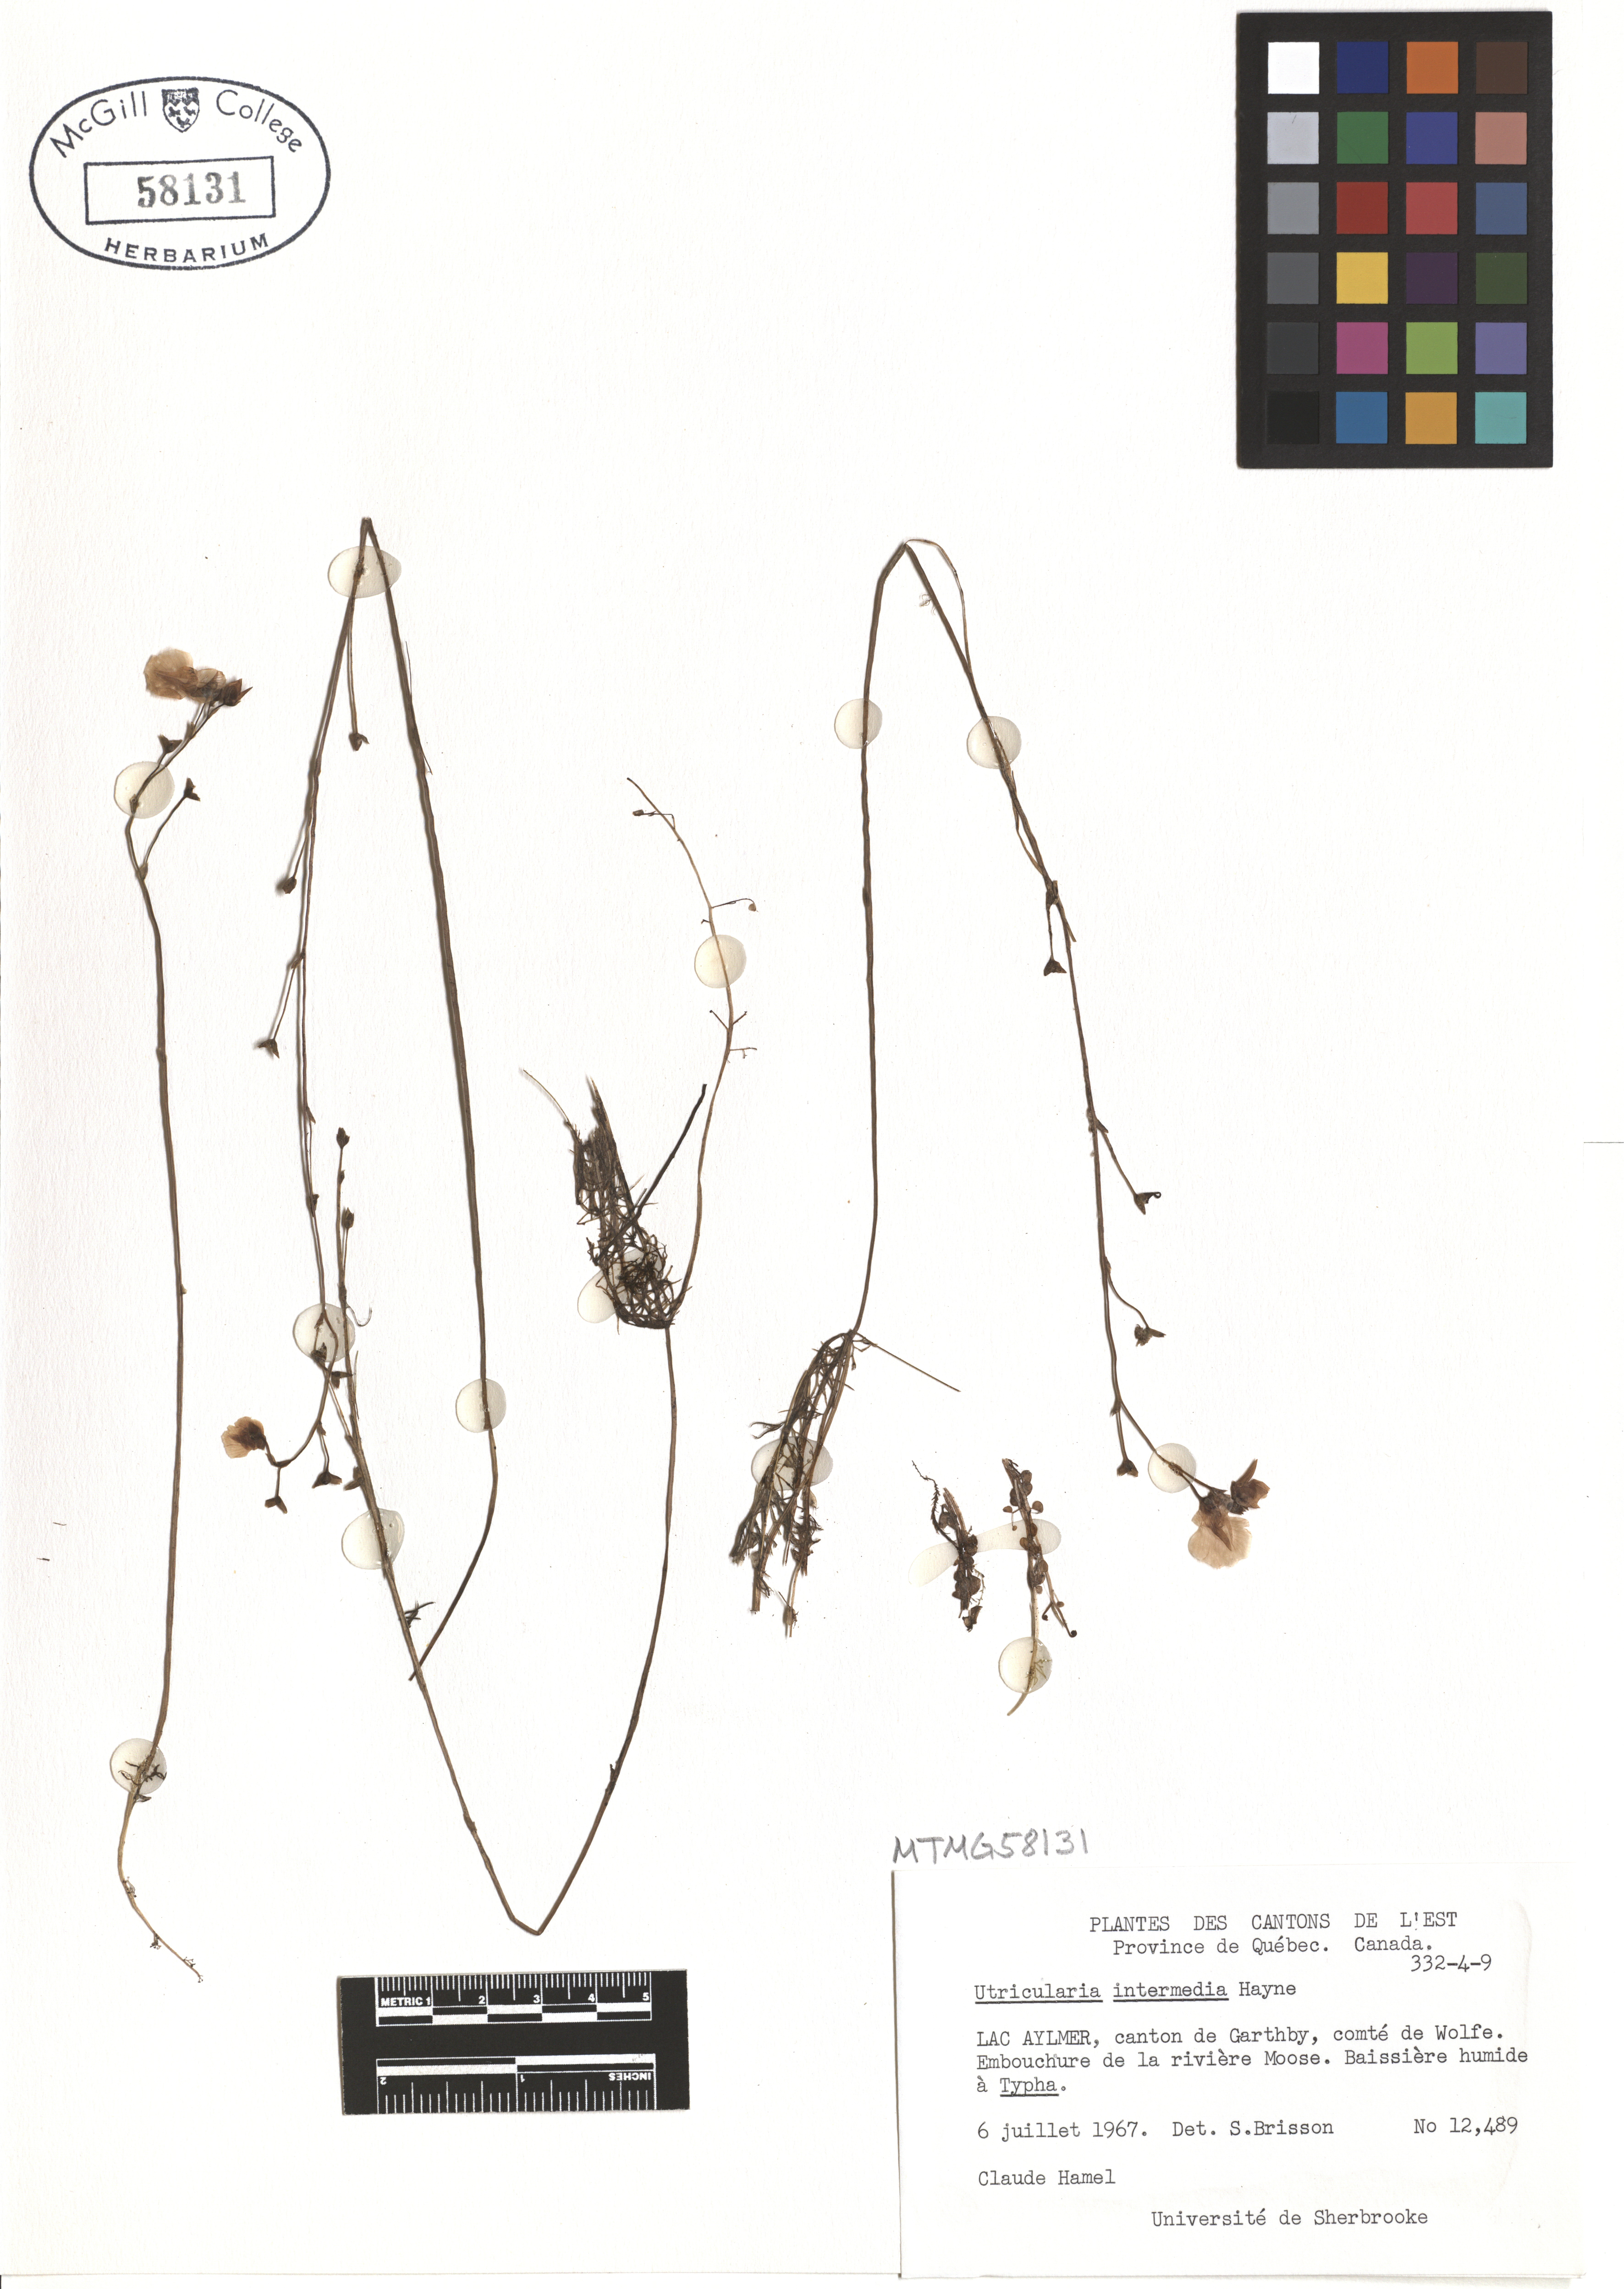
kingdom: Plantae
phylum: Tracheophyta
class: Magnoliopsida
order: Lamiales
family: Lentibulariaceae
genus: Utricularia
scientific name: Utricularia intermedia
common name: Intermediate bladderwort
